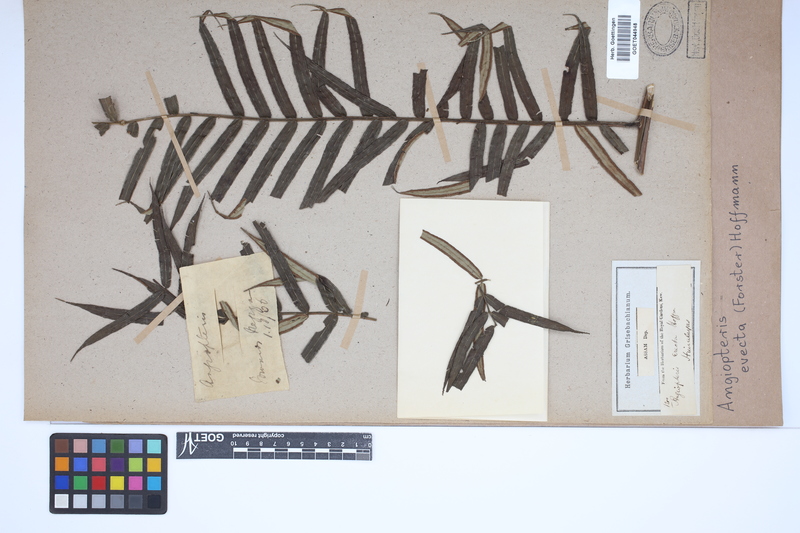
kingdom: Plantae
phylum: Tracheophyta
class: Polypodiopsida
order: Marattiales
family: Marattiaceae
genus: Angiopteris
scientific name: Angiopteris evecta
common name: Mule's-foot fern
